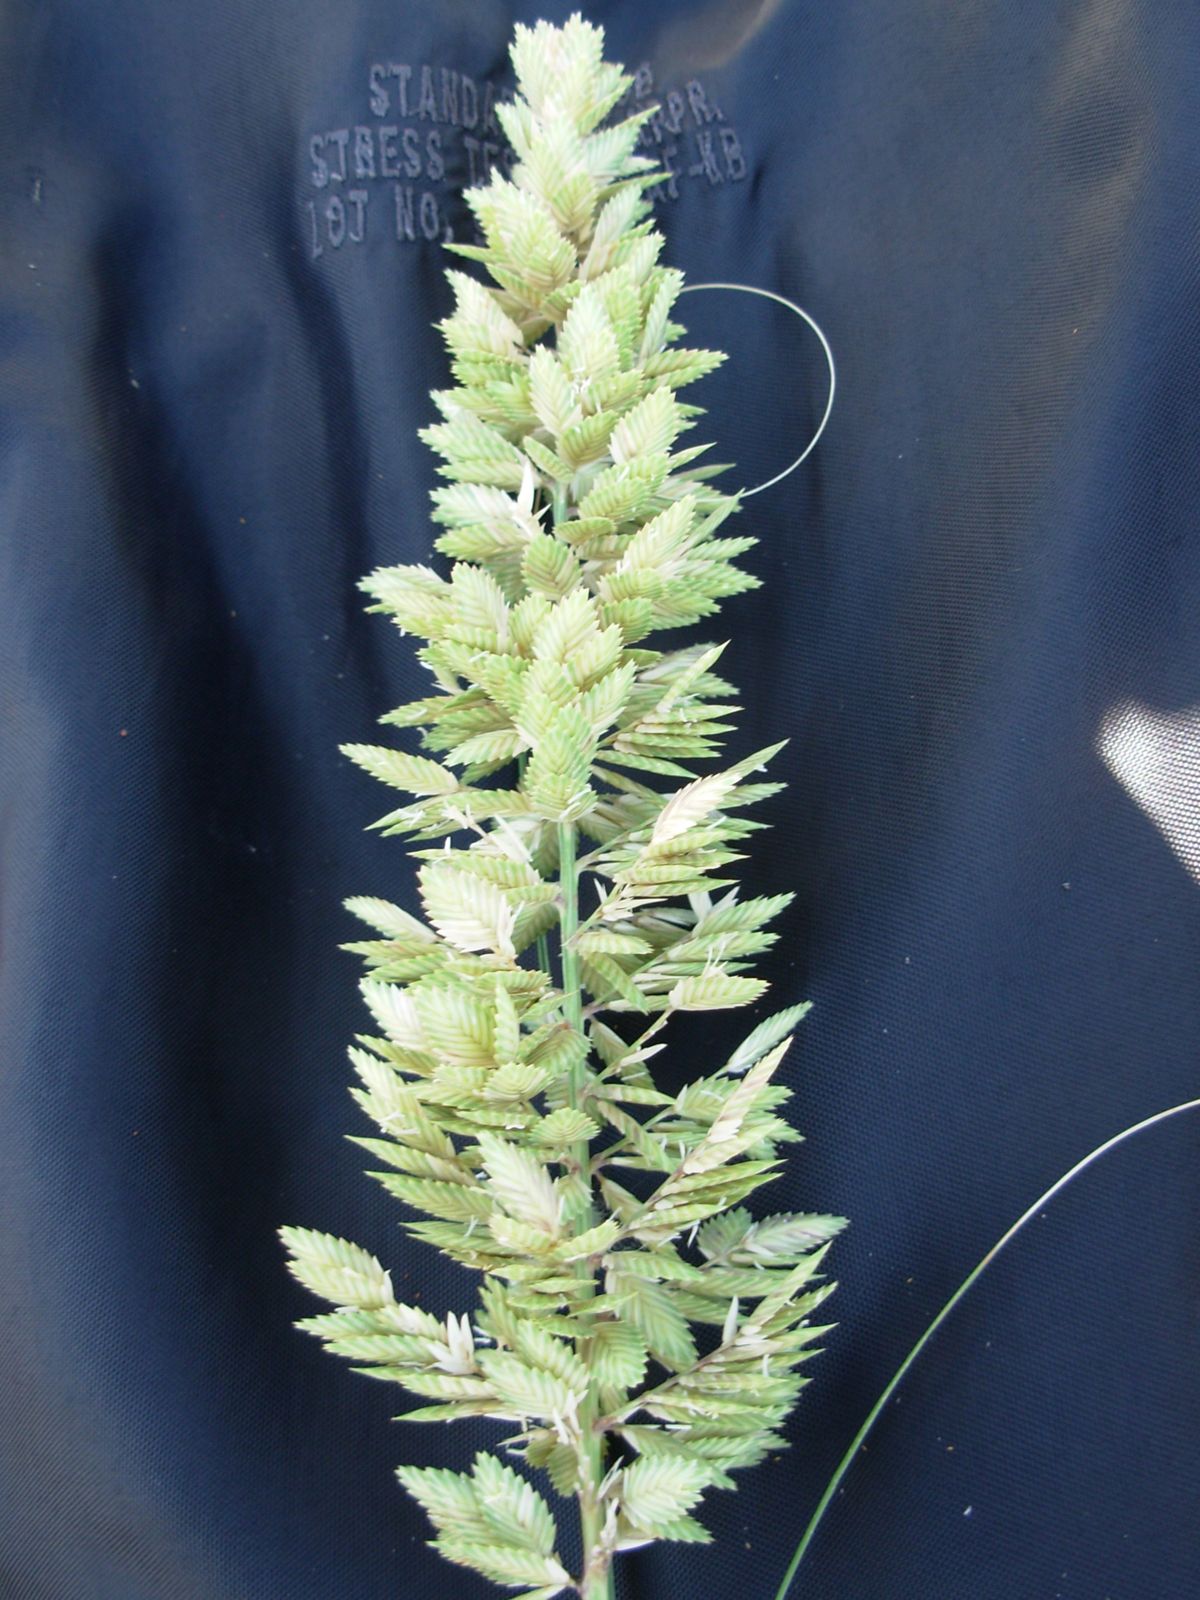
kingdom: Plantae
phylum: Tracheophyta
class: Liliopsida
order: Poales
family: Poaceae
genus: Uniola
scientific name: Uniola pittieri
